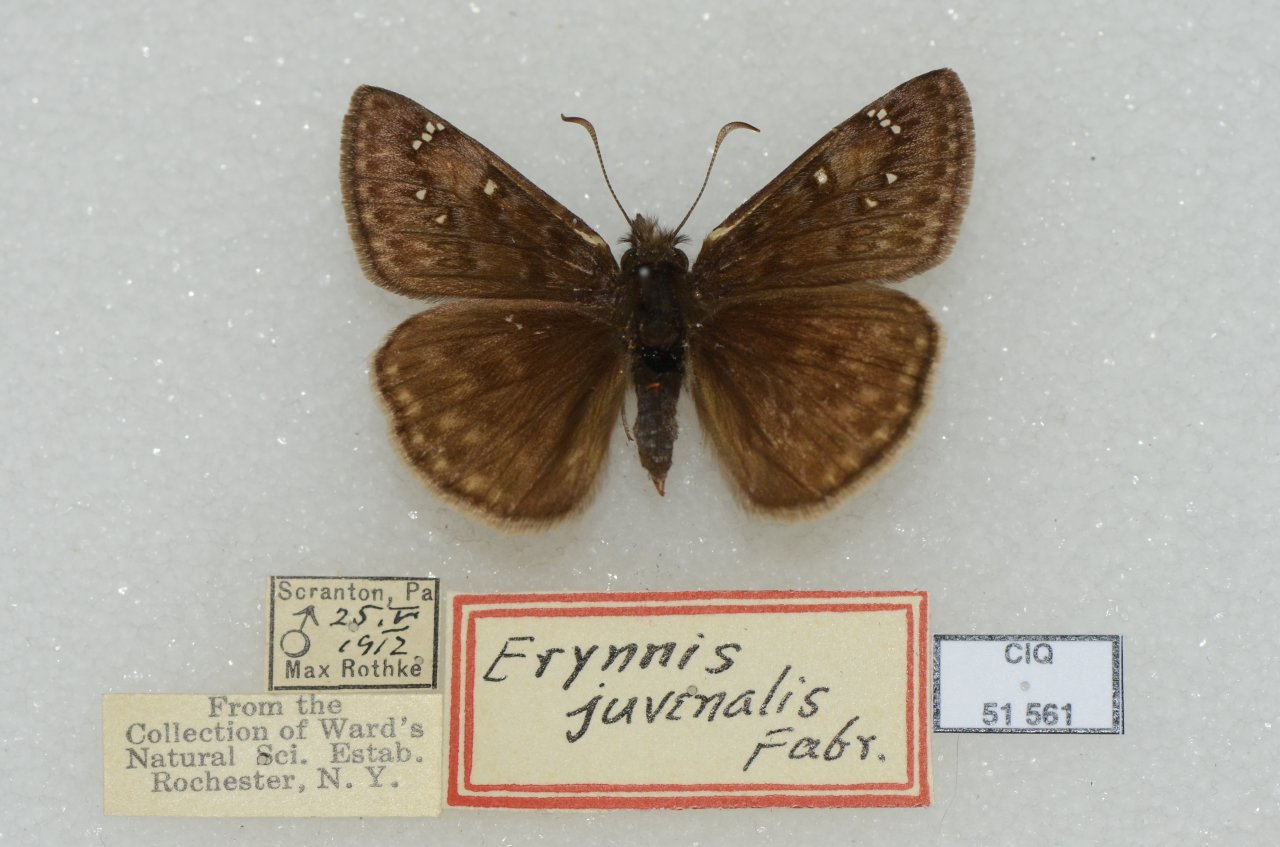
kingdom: Animalia
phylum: Arthropoda
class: Insecta
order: Lepidoptera
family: Hesperiidae
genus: Gesta
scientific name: Gesta
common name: Juvenal's Duskywing
